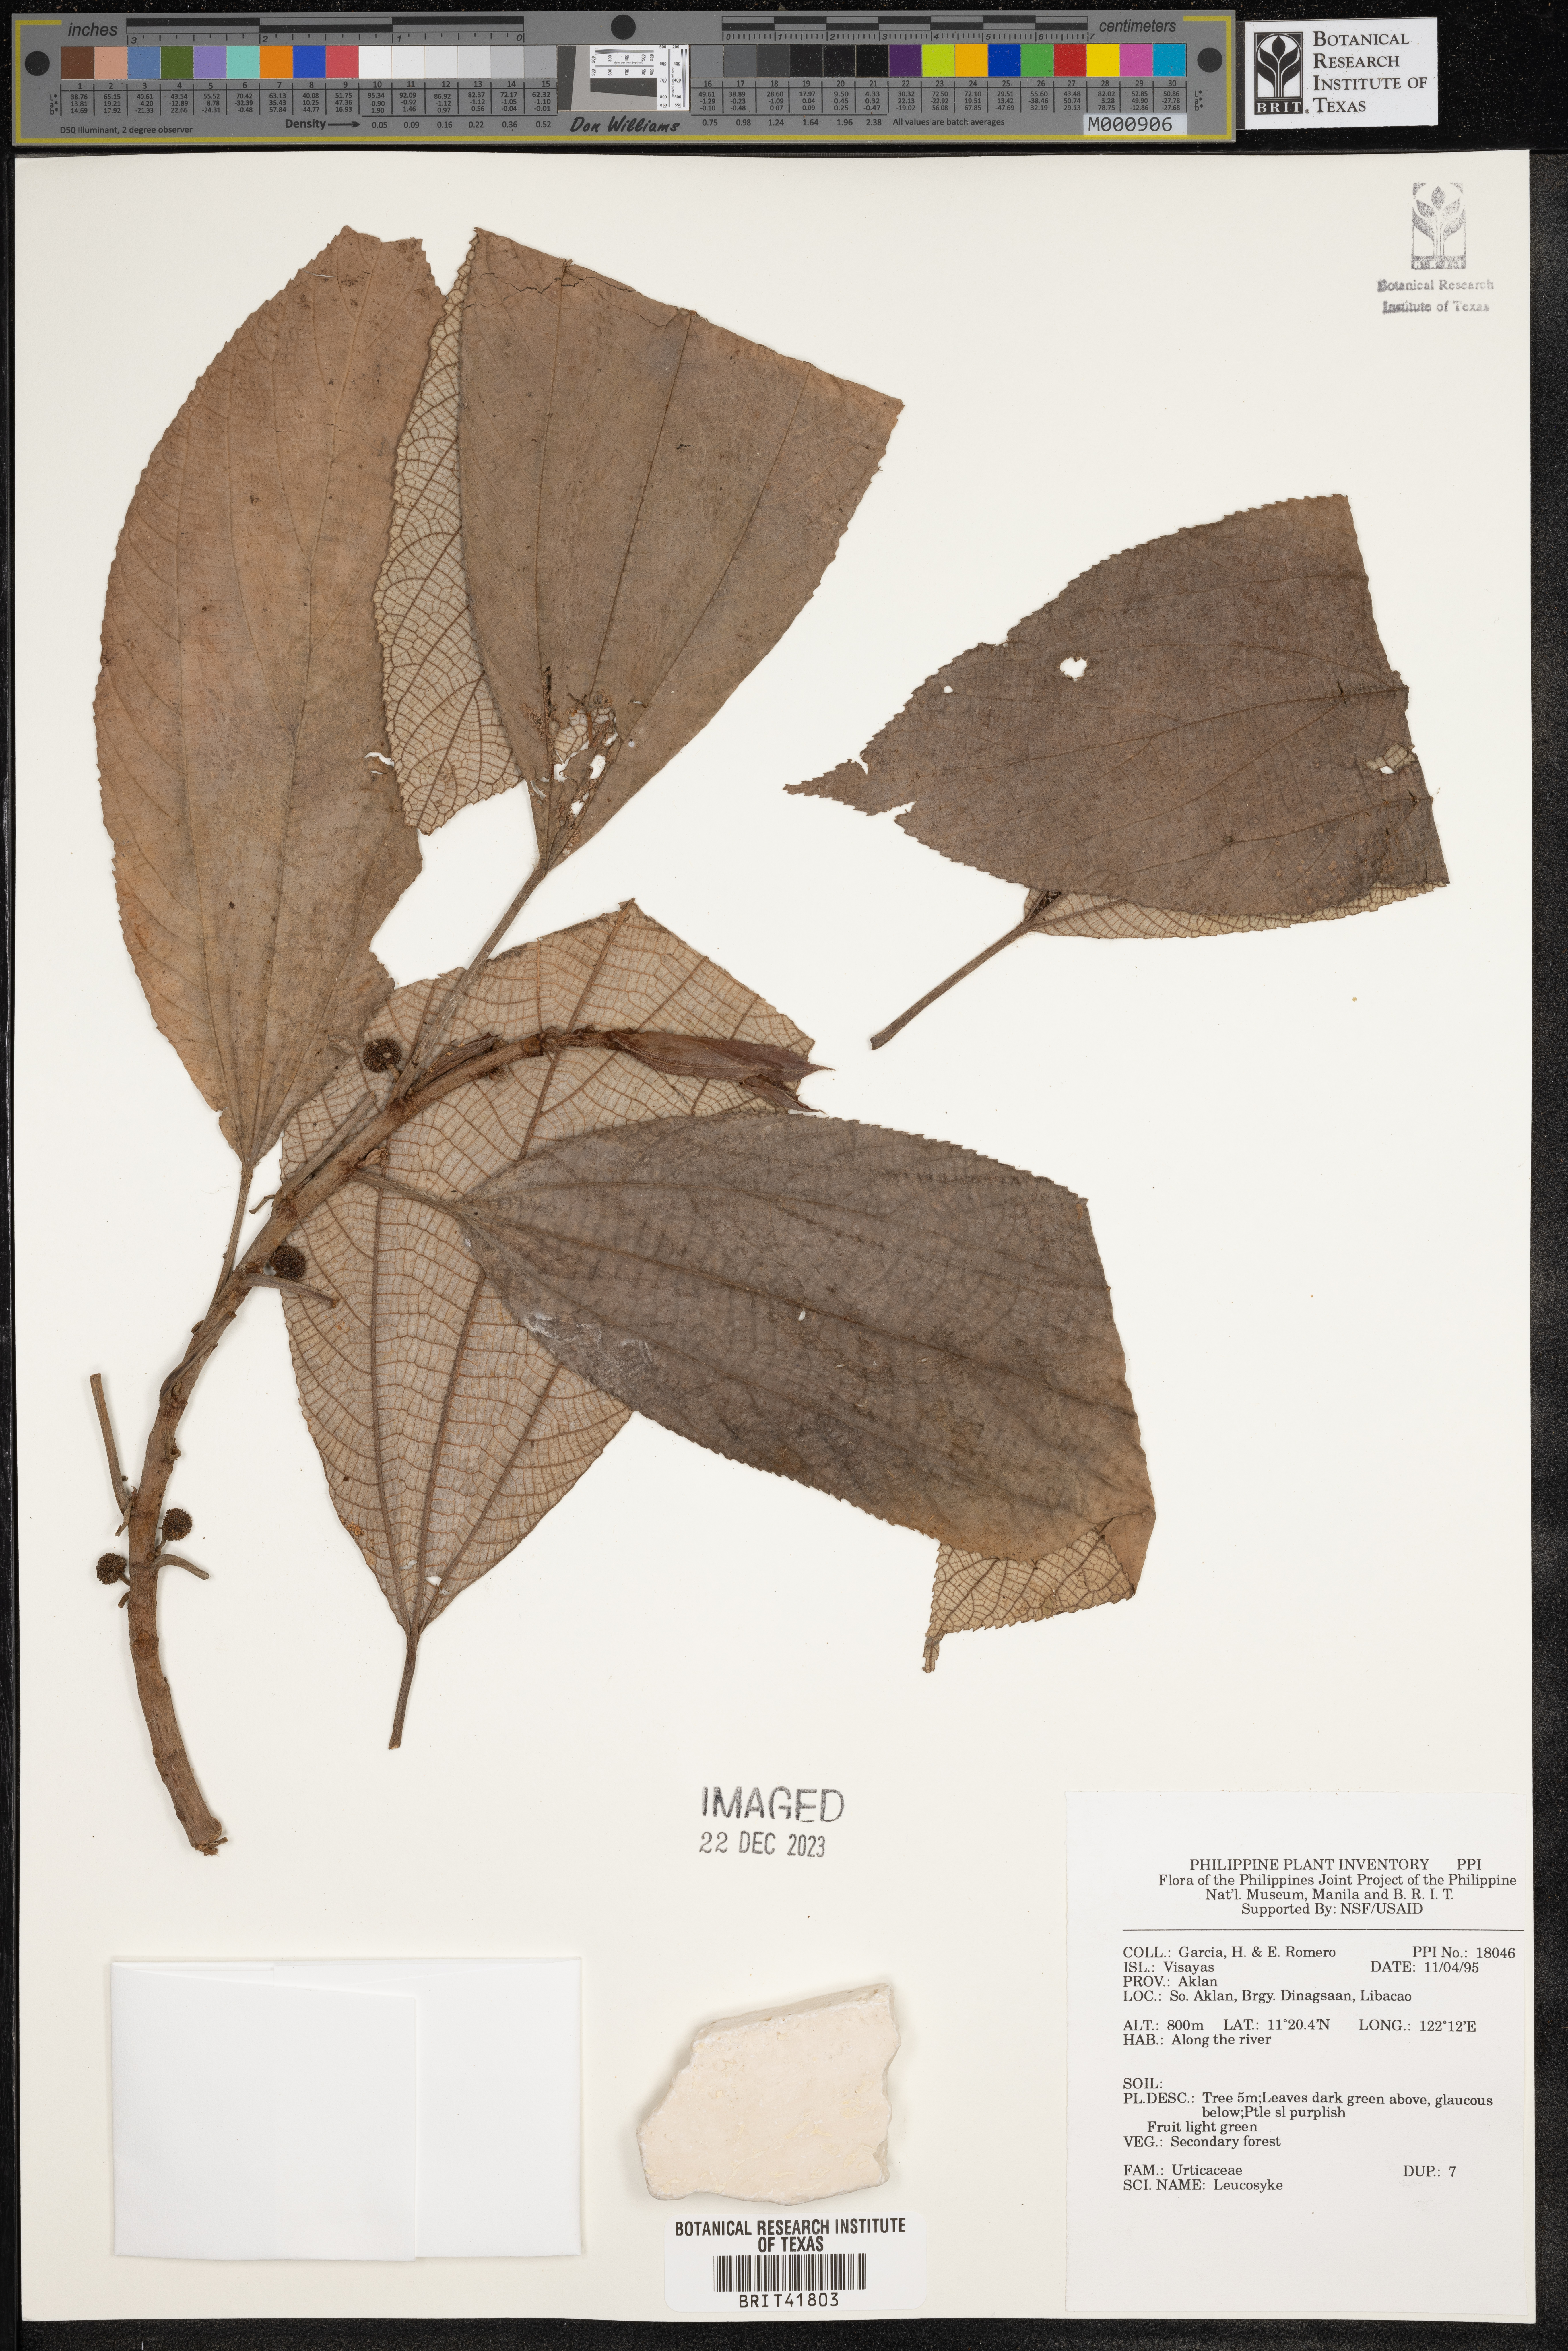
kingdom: Plantae
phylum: Tracheophyta
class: Magnoliopsida
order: Rosales
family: Urticaceae
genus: Leucosyke
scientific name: Leucosyke
